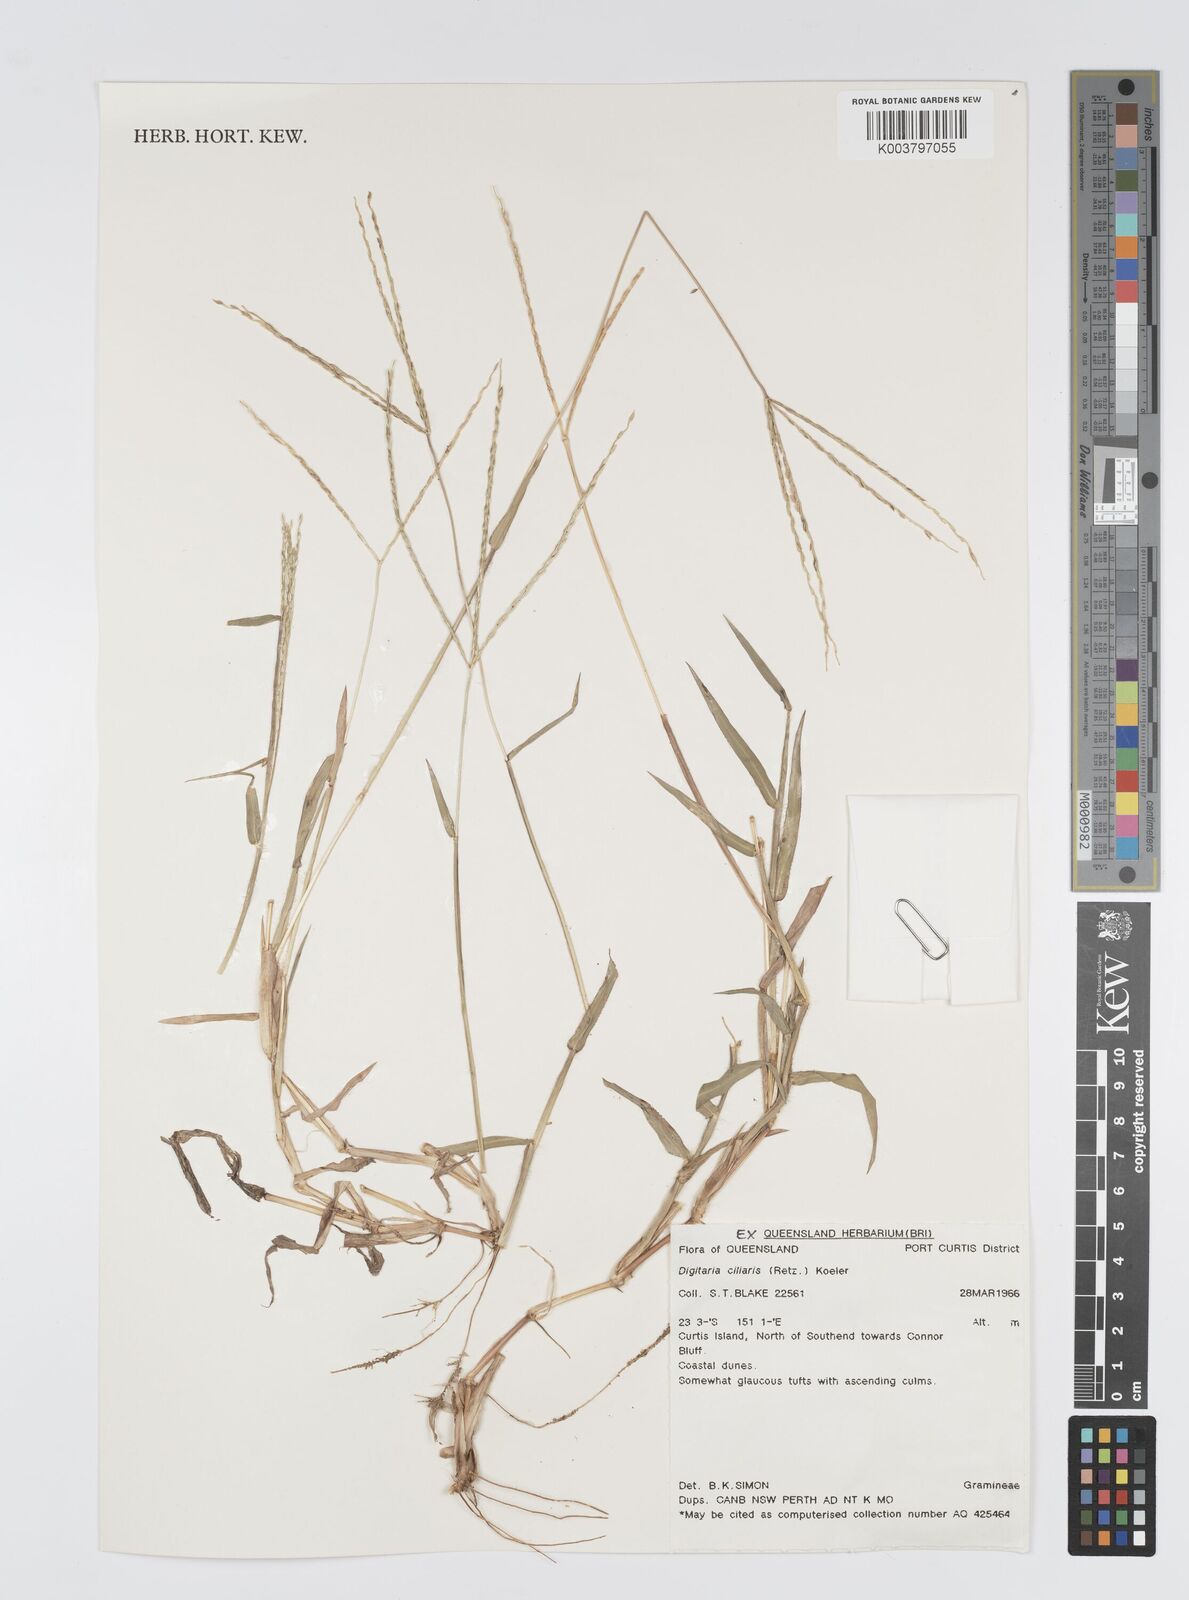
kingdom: Plantae
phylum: Tracheophyta
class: Liliopsida
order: Poales
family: Poaceae
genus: Digitaria
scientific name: Digitaria ciliaris
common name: Tropical finger-grass
